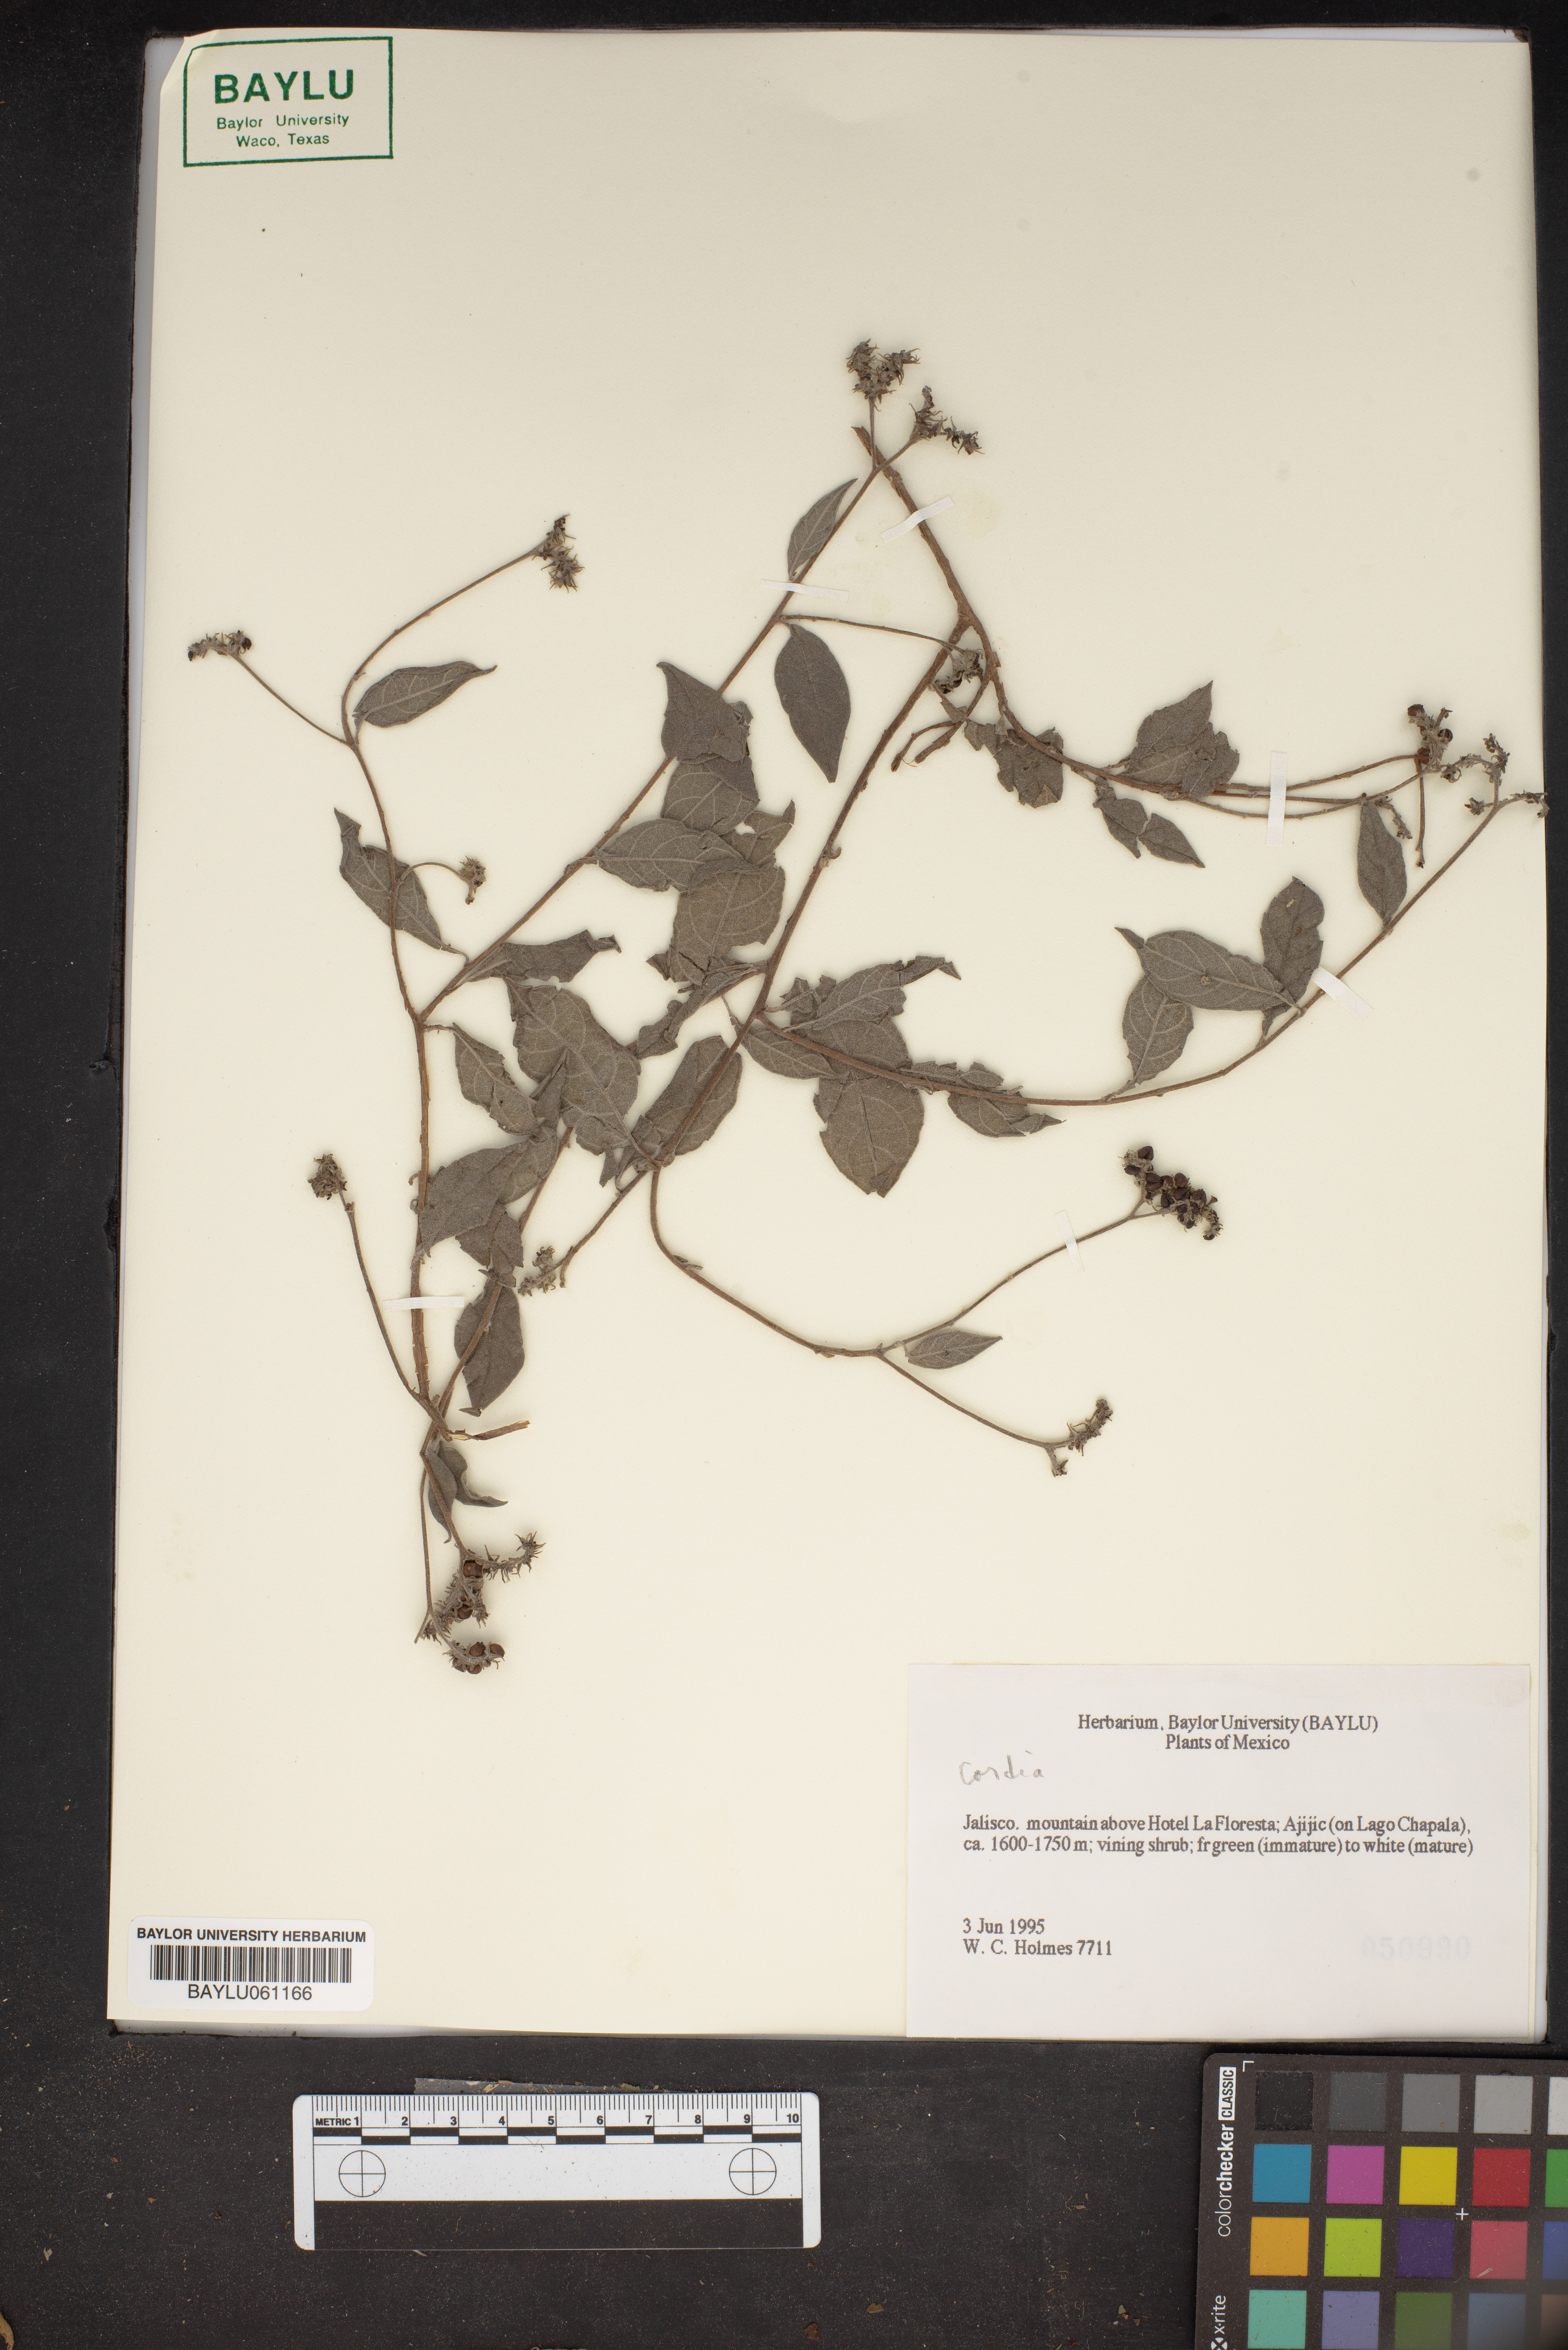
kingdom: Plantae
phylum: Tracheophyta
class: Magnoliopsida
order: Boraginales
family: Cordiaceae
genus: Cordia
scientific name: Cordia
